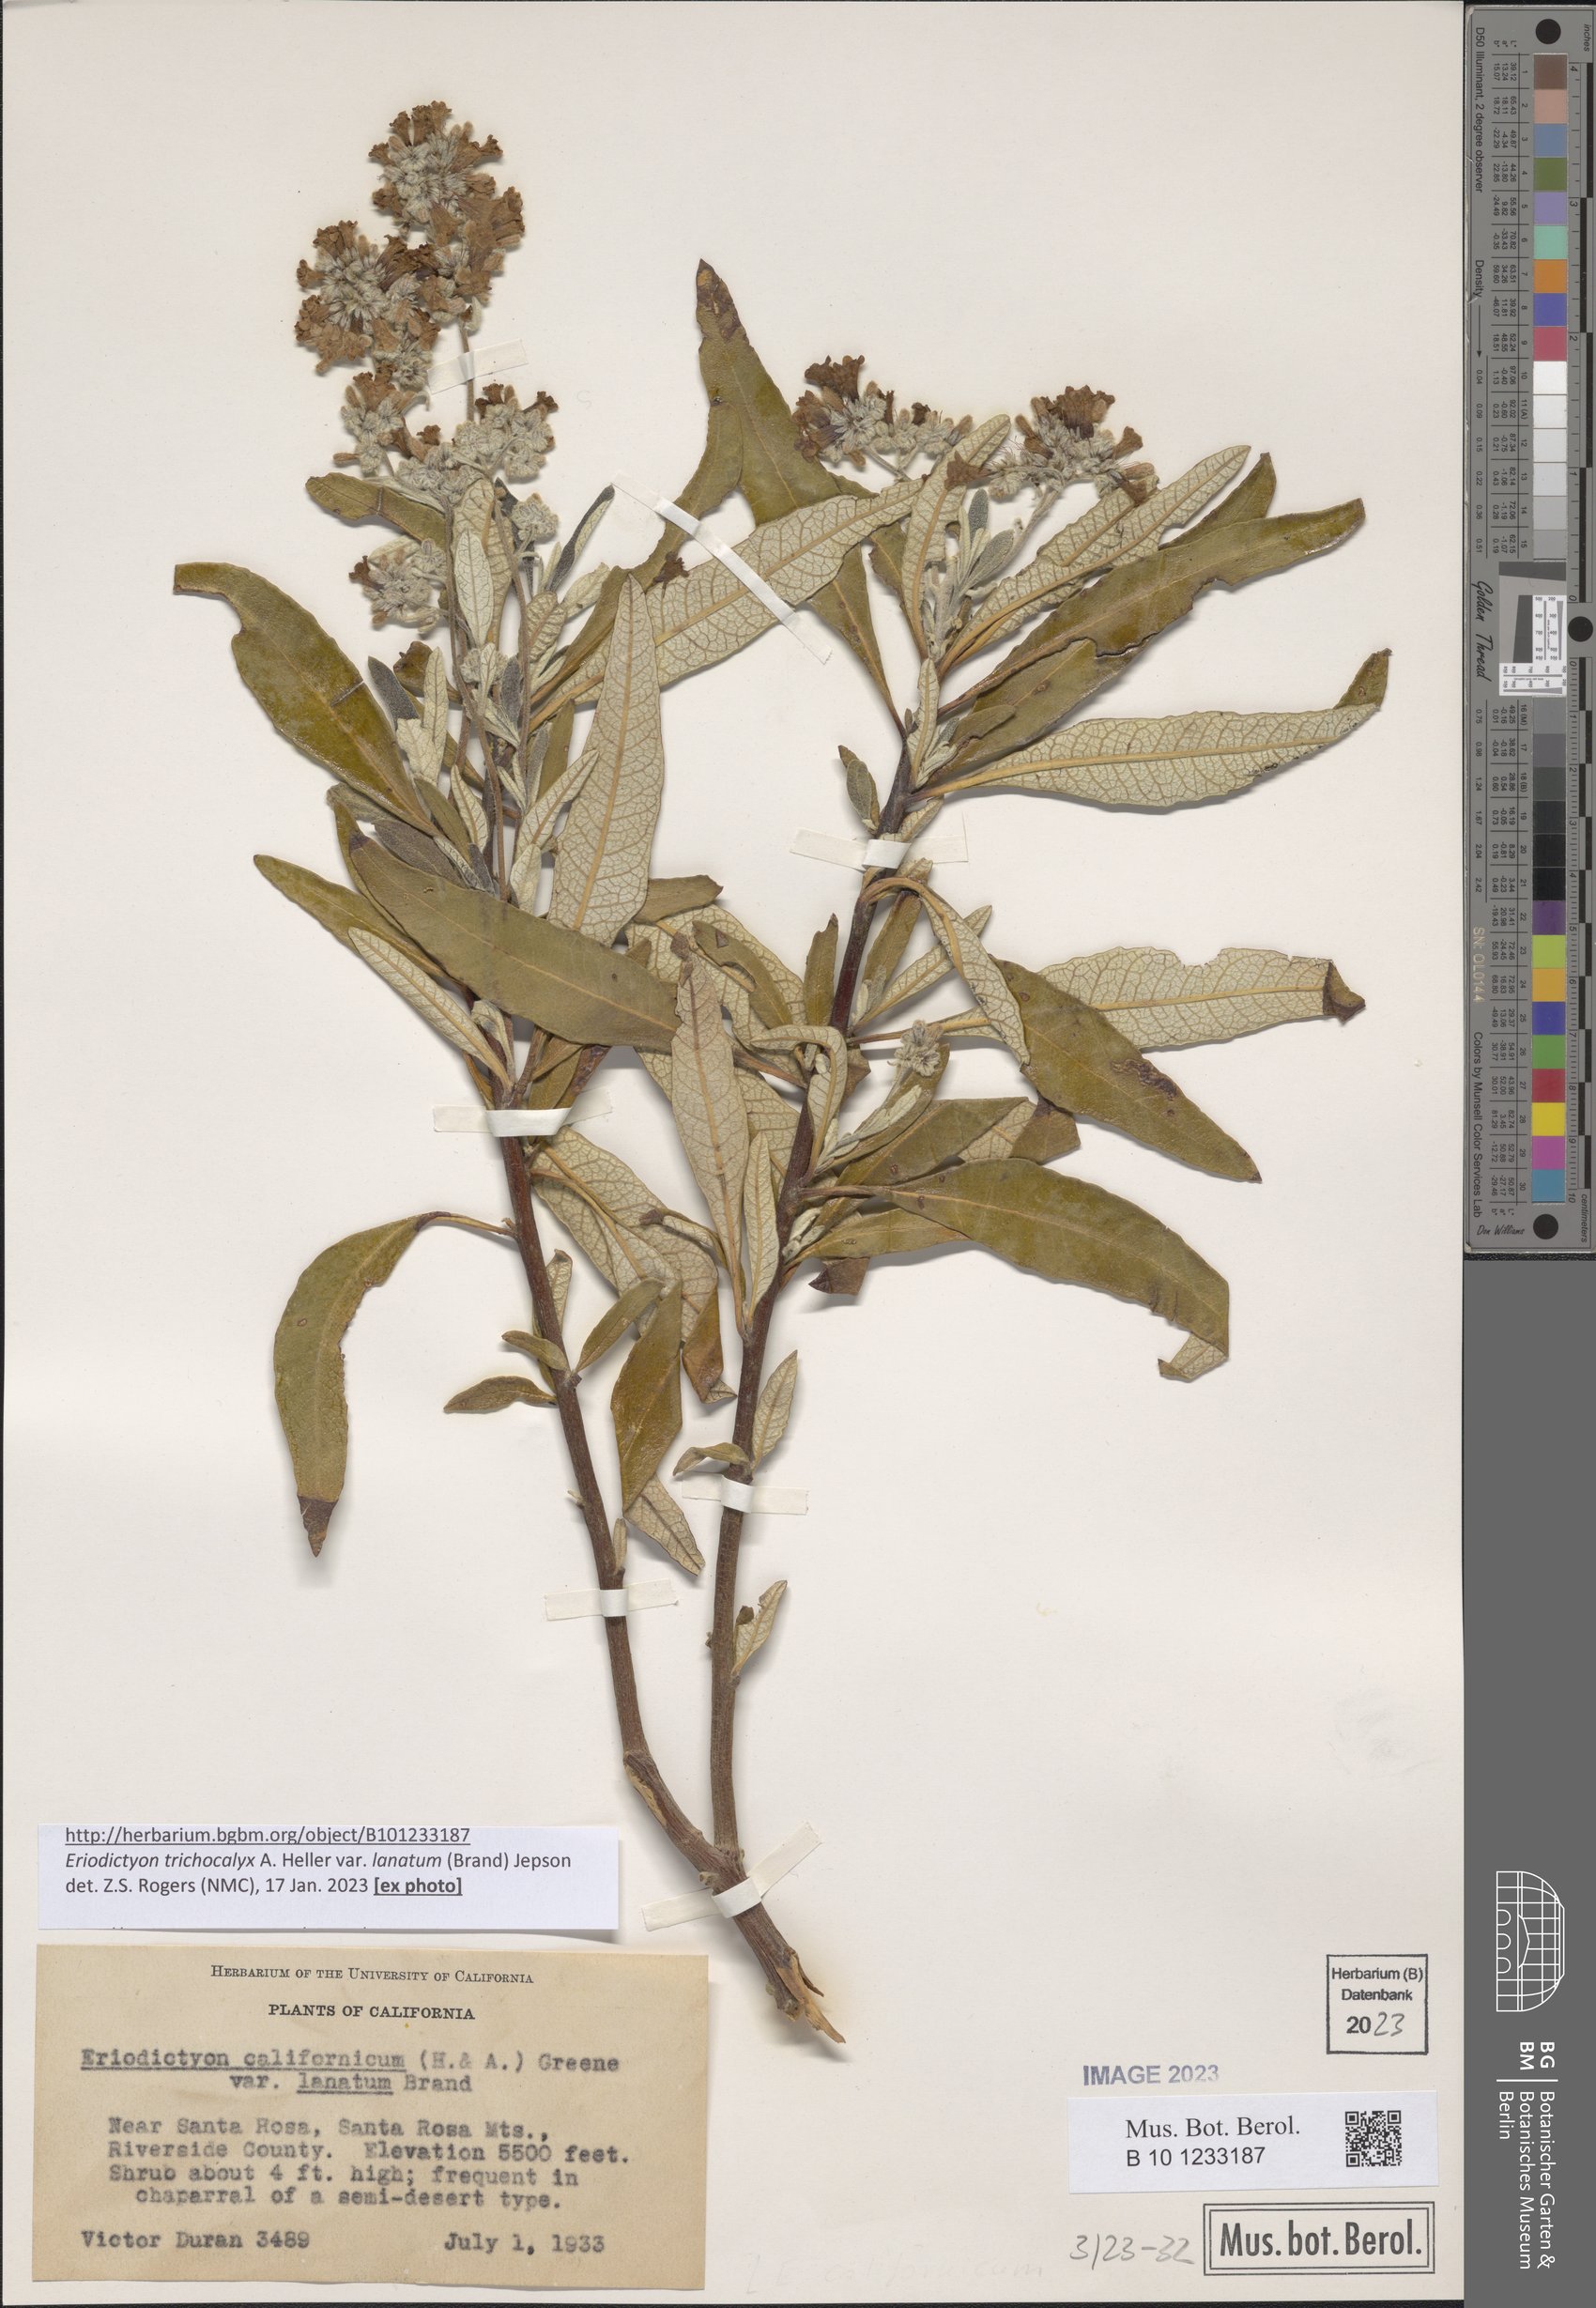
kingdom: Plantae
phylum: Tracheophyta
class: Magnoliopsida
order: Boraginales
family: Namaceae
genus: Eriodictyon
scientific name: Eriodictyon trichocalyx
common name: Hairy yerba-santa
